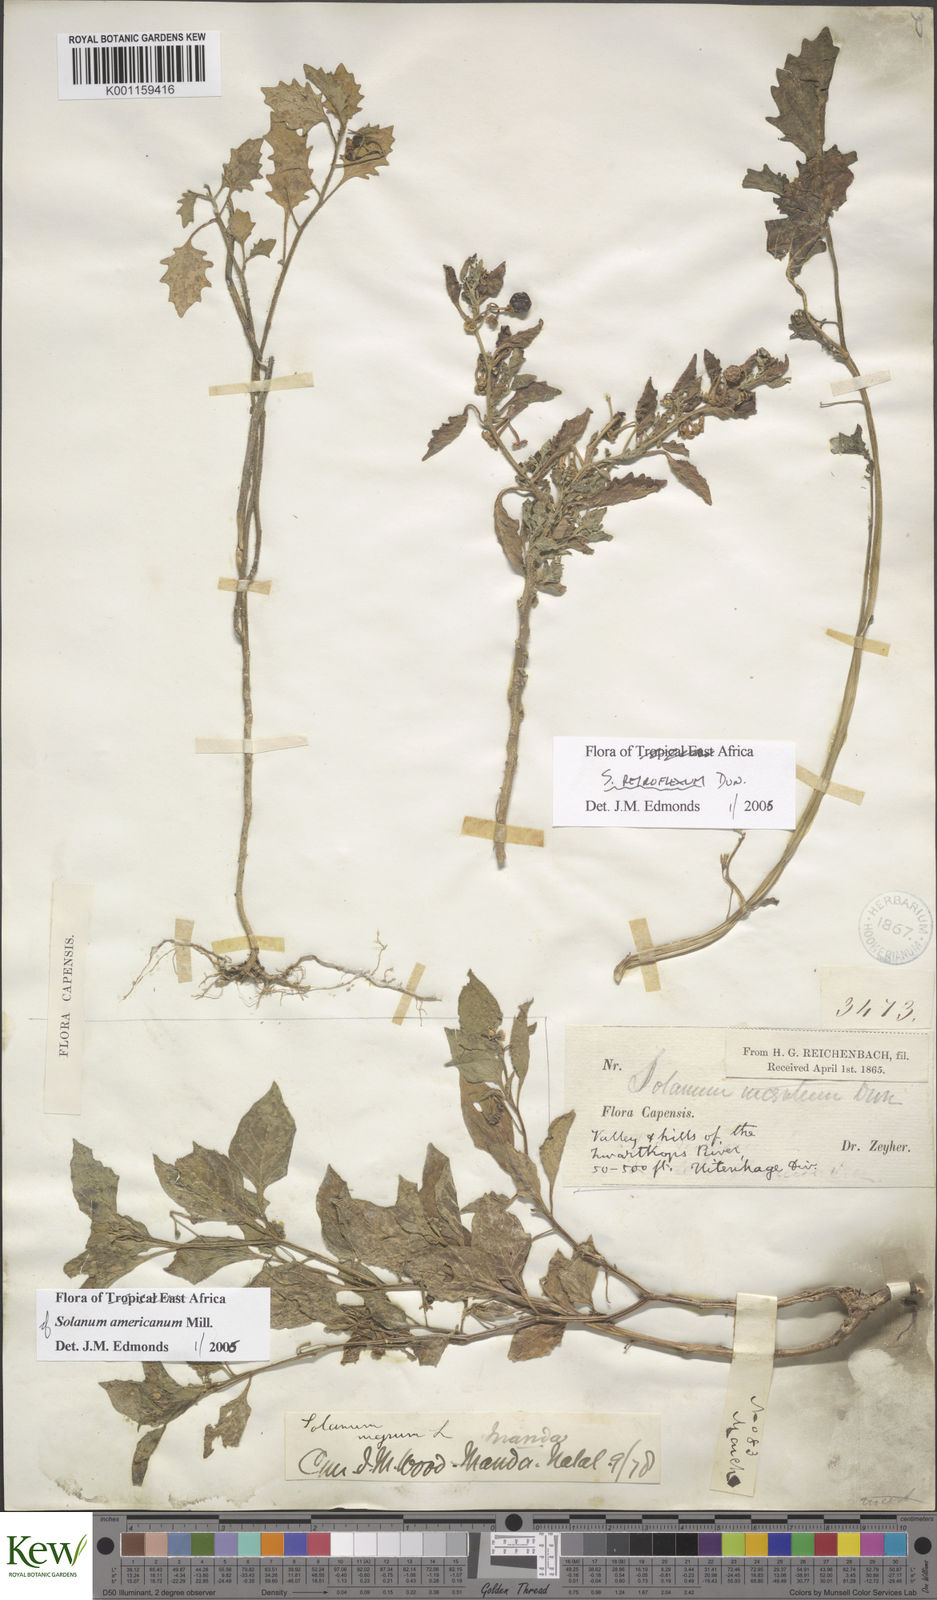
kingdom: Plantae
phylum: Tracheophyta
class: Magnoliopsida
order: Solanales
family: Solanaceae
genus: Solanum
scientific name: Solanum retroflexum
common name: Wonderberry
